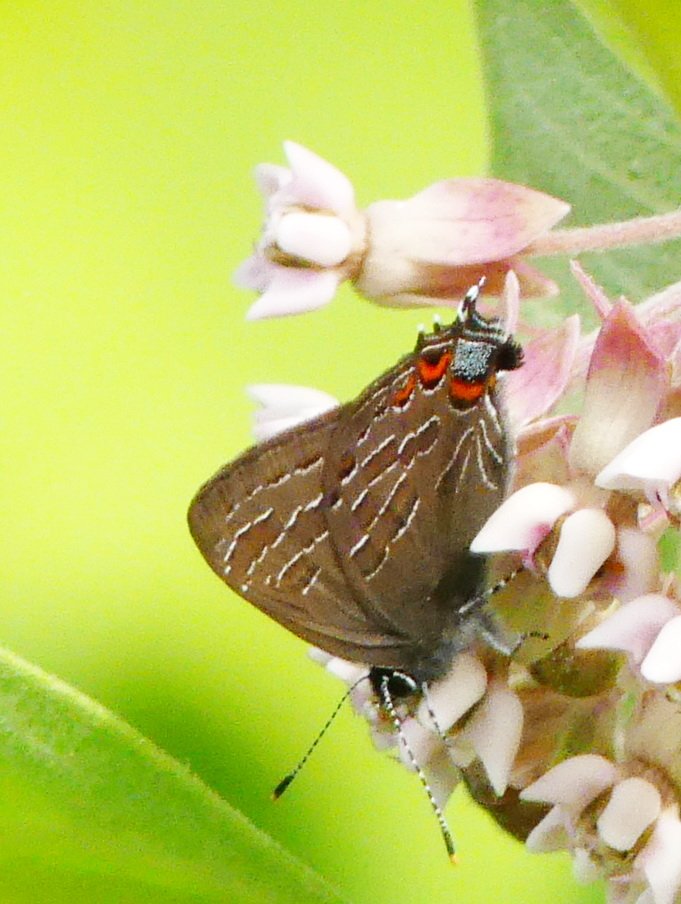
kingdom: Animalia
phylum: Arthropoda
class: Insecta
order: Lepidoptera
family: Lycaenidae
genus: Satyrium
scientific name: Satyrium liparops
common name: Striped Hairstreak
